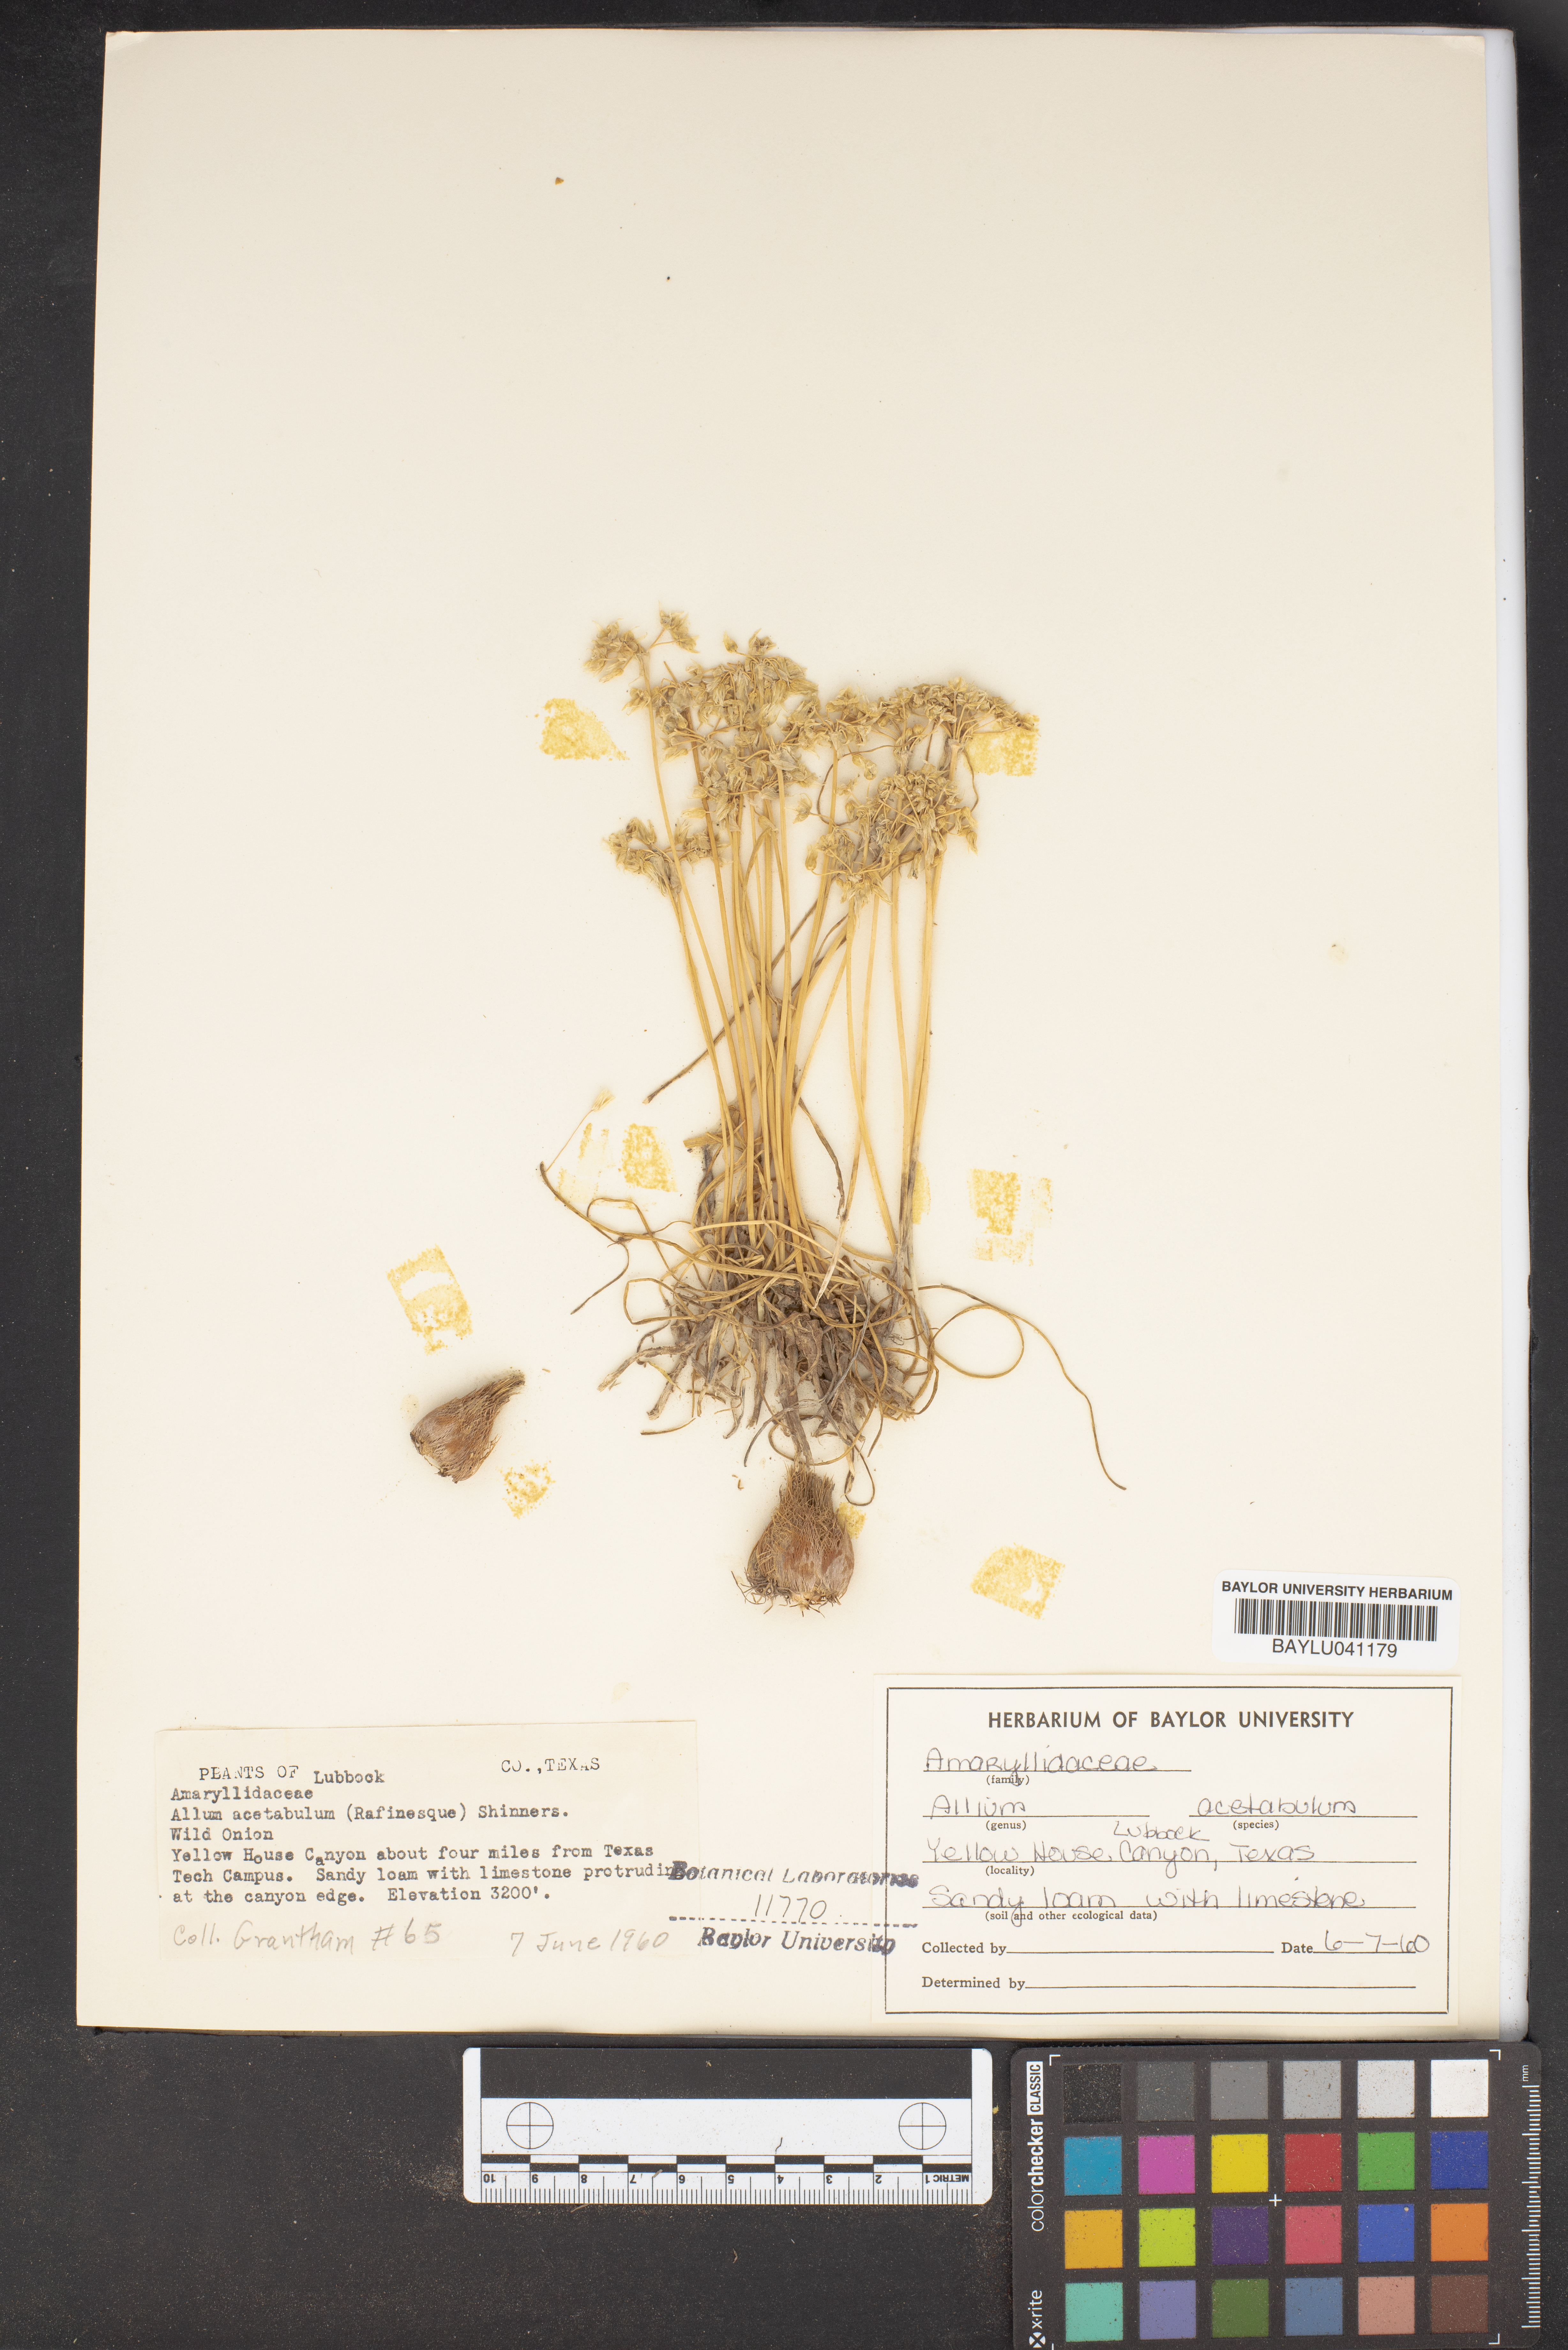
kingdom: Plantae
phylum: Tracheophyta
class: Liliopsida
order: Asparagales
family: Amaryllidaceae
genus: Allium
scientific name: Allium canadense
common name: Meadow garlic
